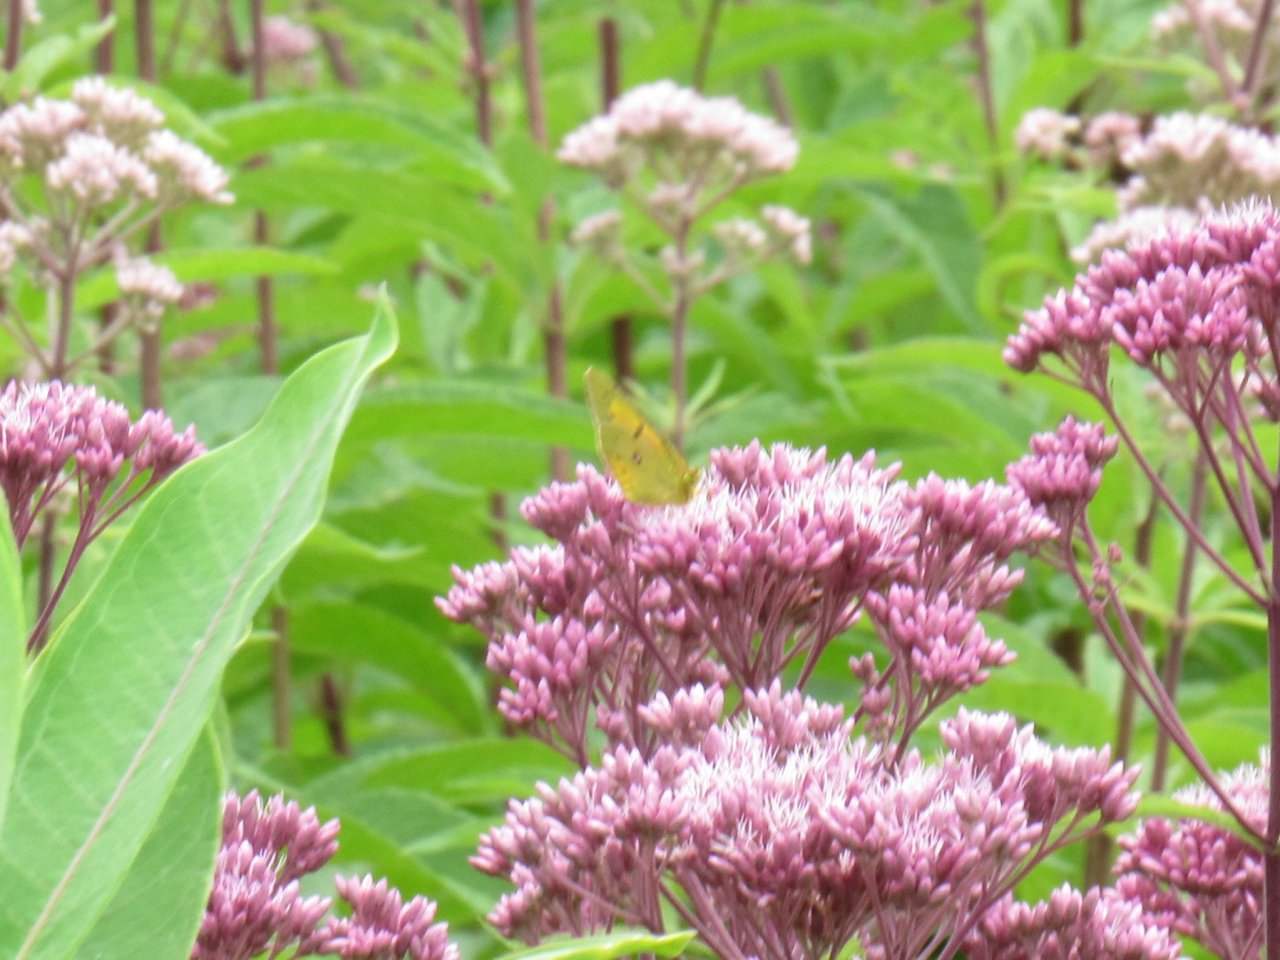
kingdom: Animalia
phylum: Arthropoda
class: Insecta
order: Lepidoptera
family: Pieridae
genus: Colias
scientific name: Colias eurytheme
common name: Orange Sulphur
